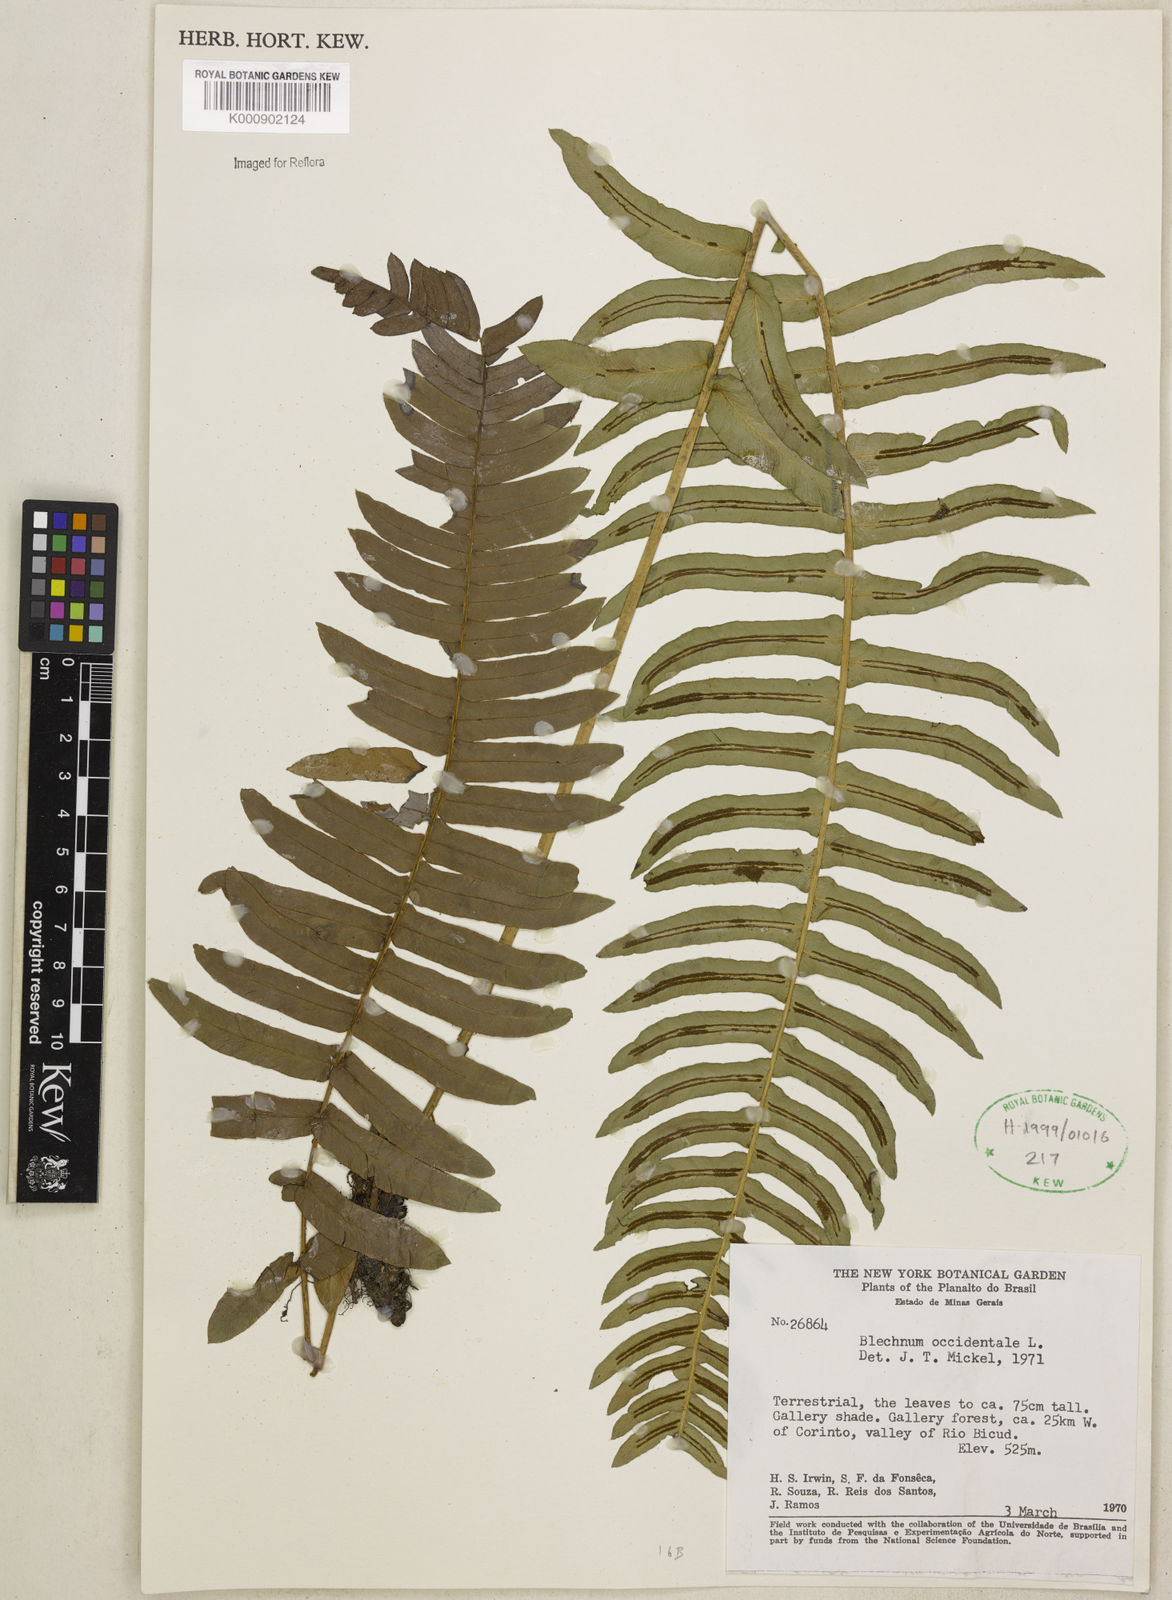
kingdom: Plantae
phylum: Tracheophyta
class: Polypodiopsida
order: Polypodiales
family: Blechnaceae
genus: Blechnum
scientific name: Blechnum occidentale
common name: Hammock fern
